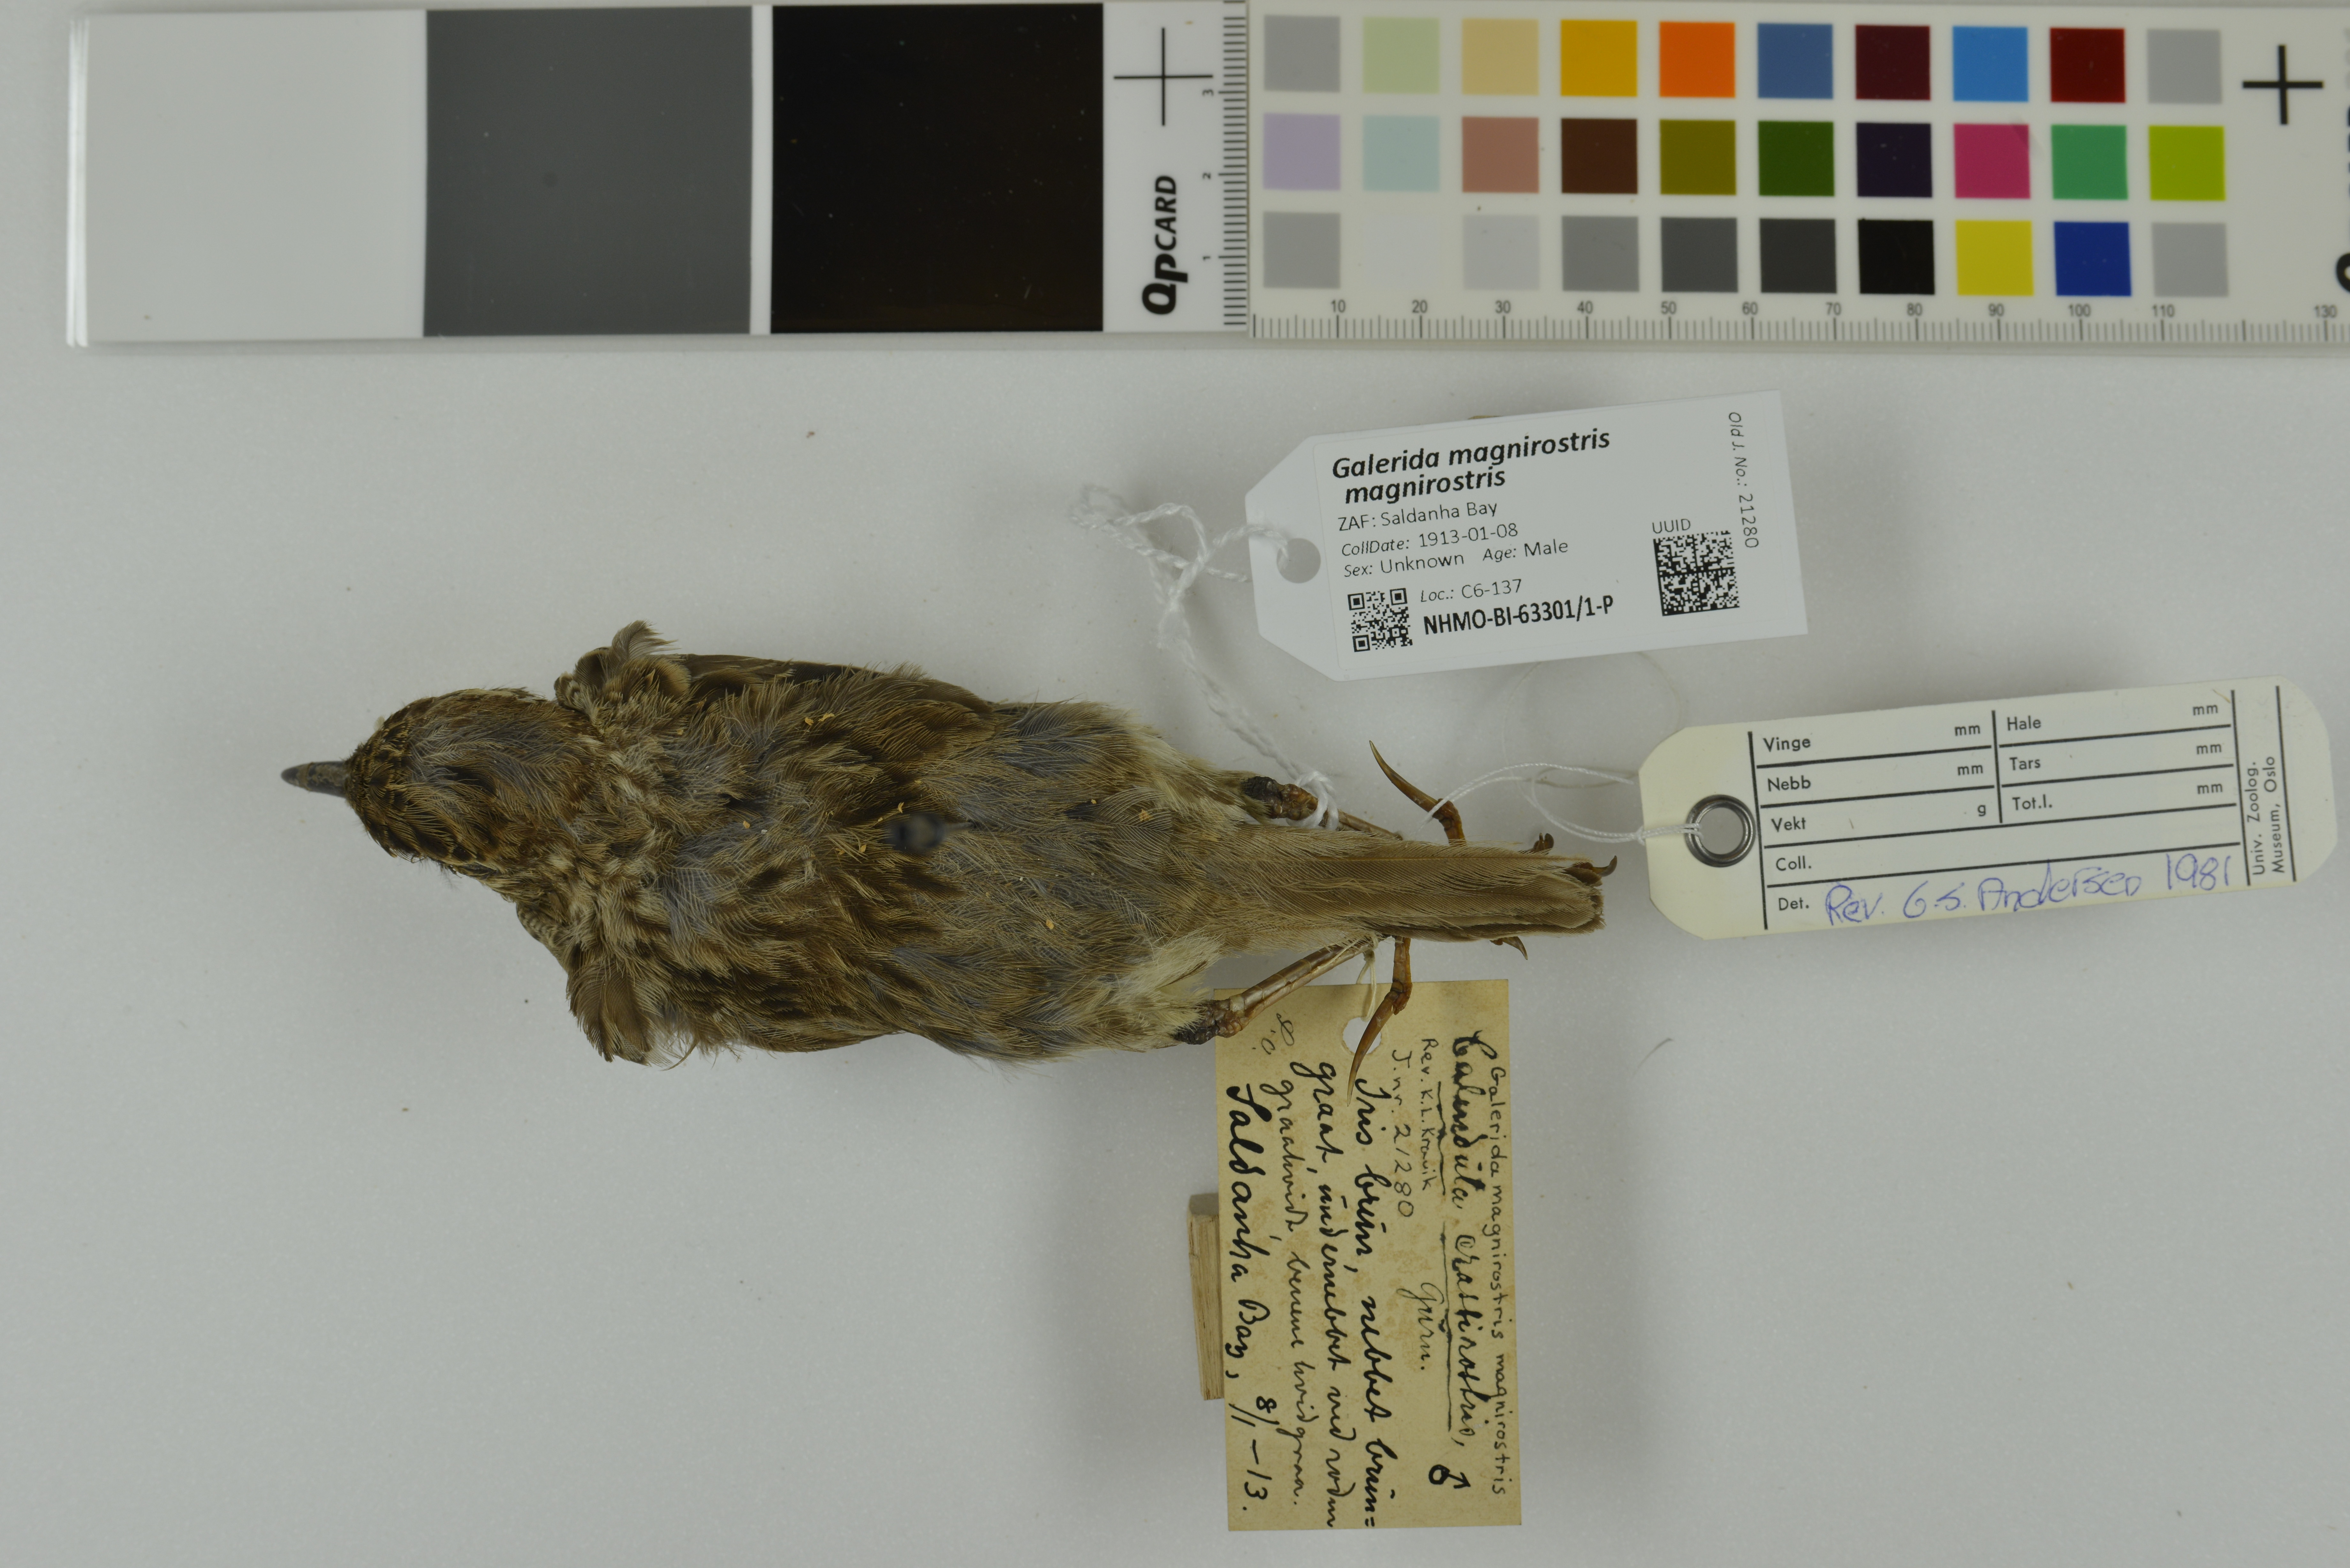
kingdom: Animalia
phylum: Chordata
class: Aves
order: Passeriformes
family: Alaudidae
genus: Galerida
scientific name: Galerida magnirostris
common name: Large-billed lark
